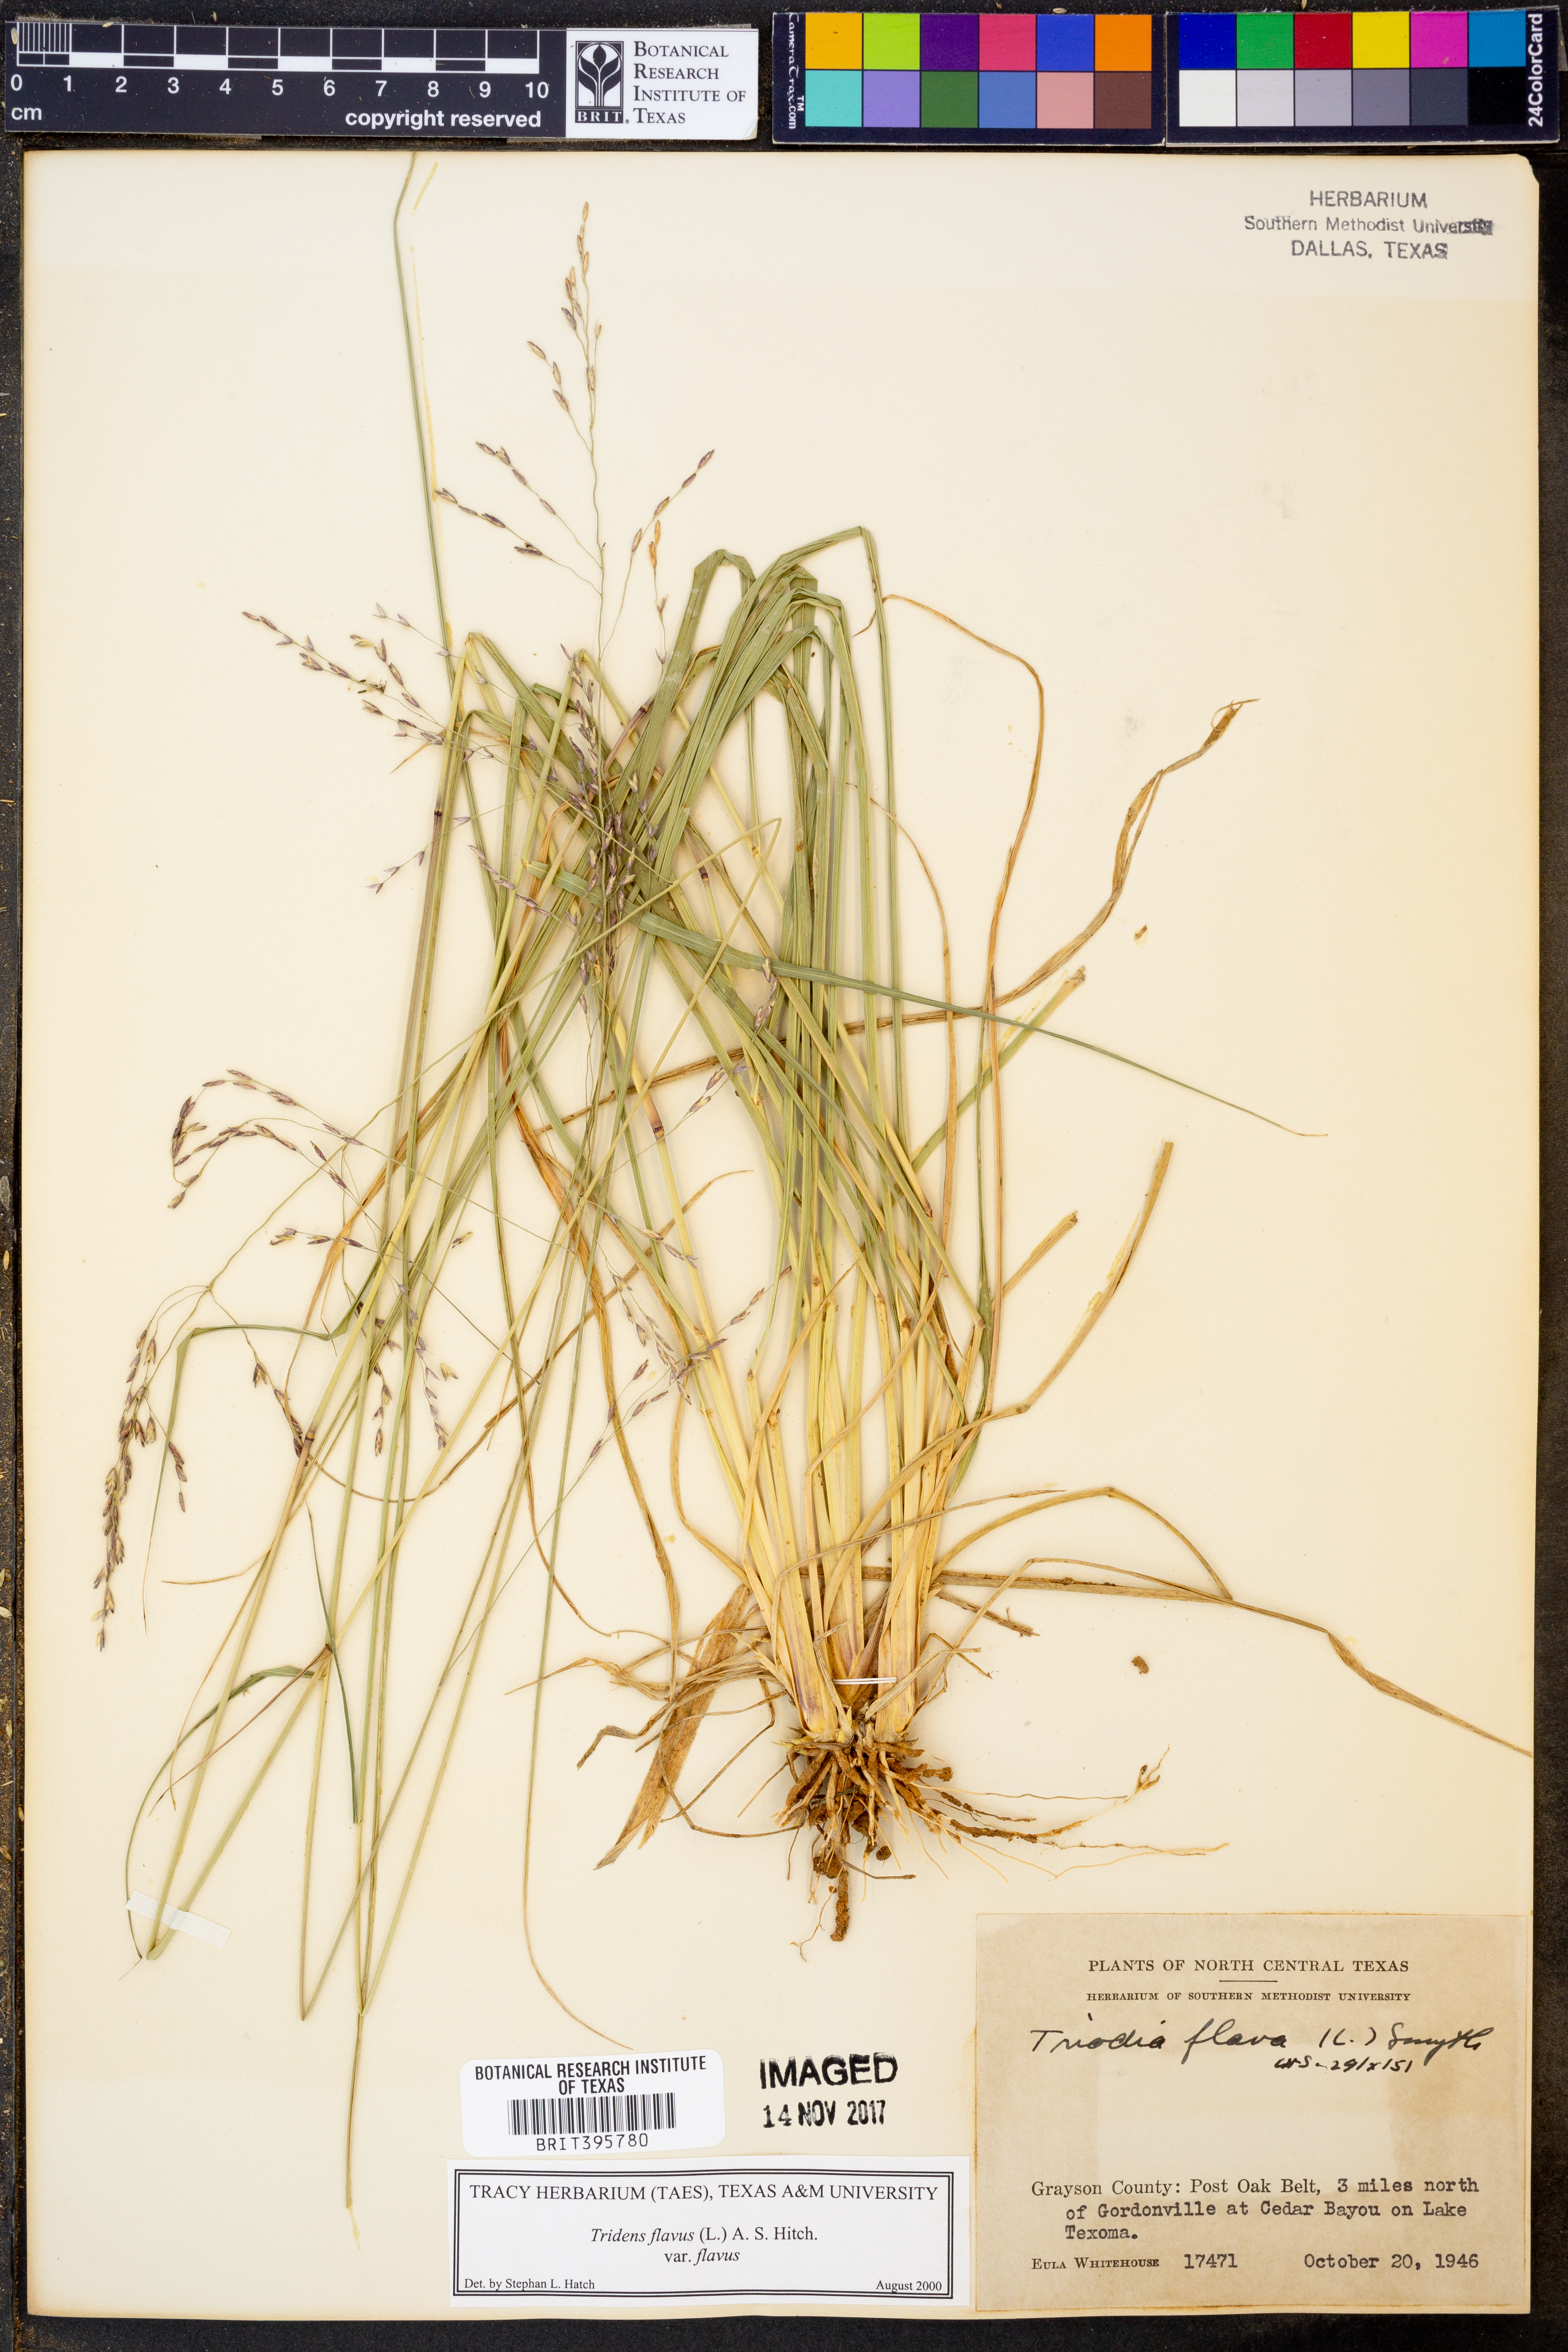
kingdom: Plantae
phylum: Tracheophyta
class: Liliopsida
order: Poales
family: Poaceae
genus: Tridens
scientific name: Tridens flavus
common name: Purpletop
